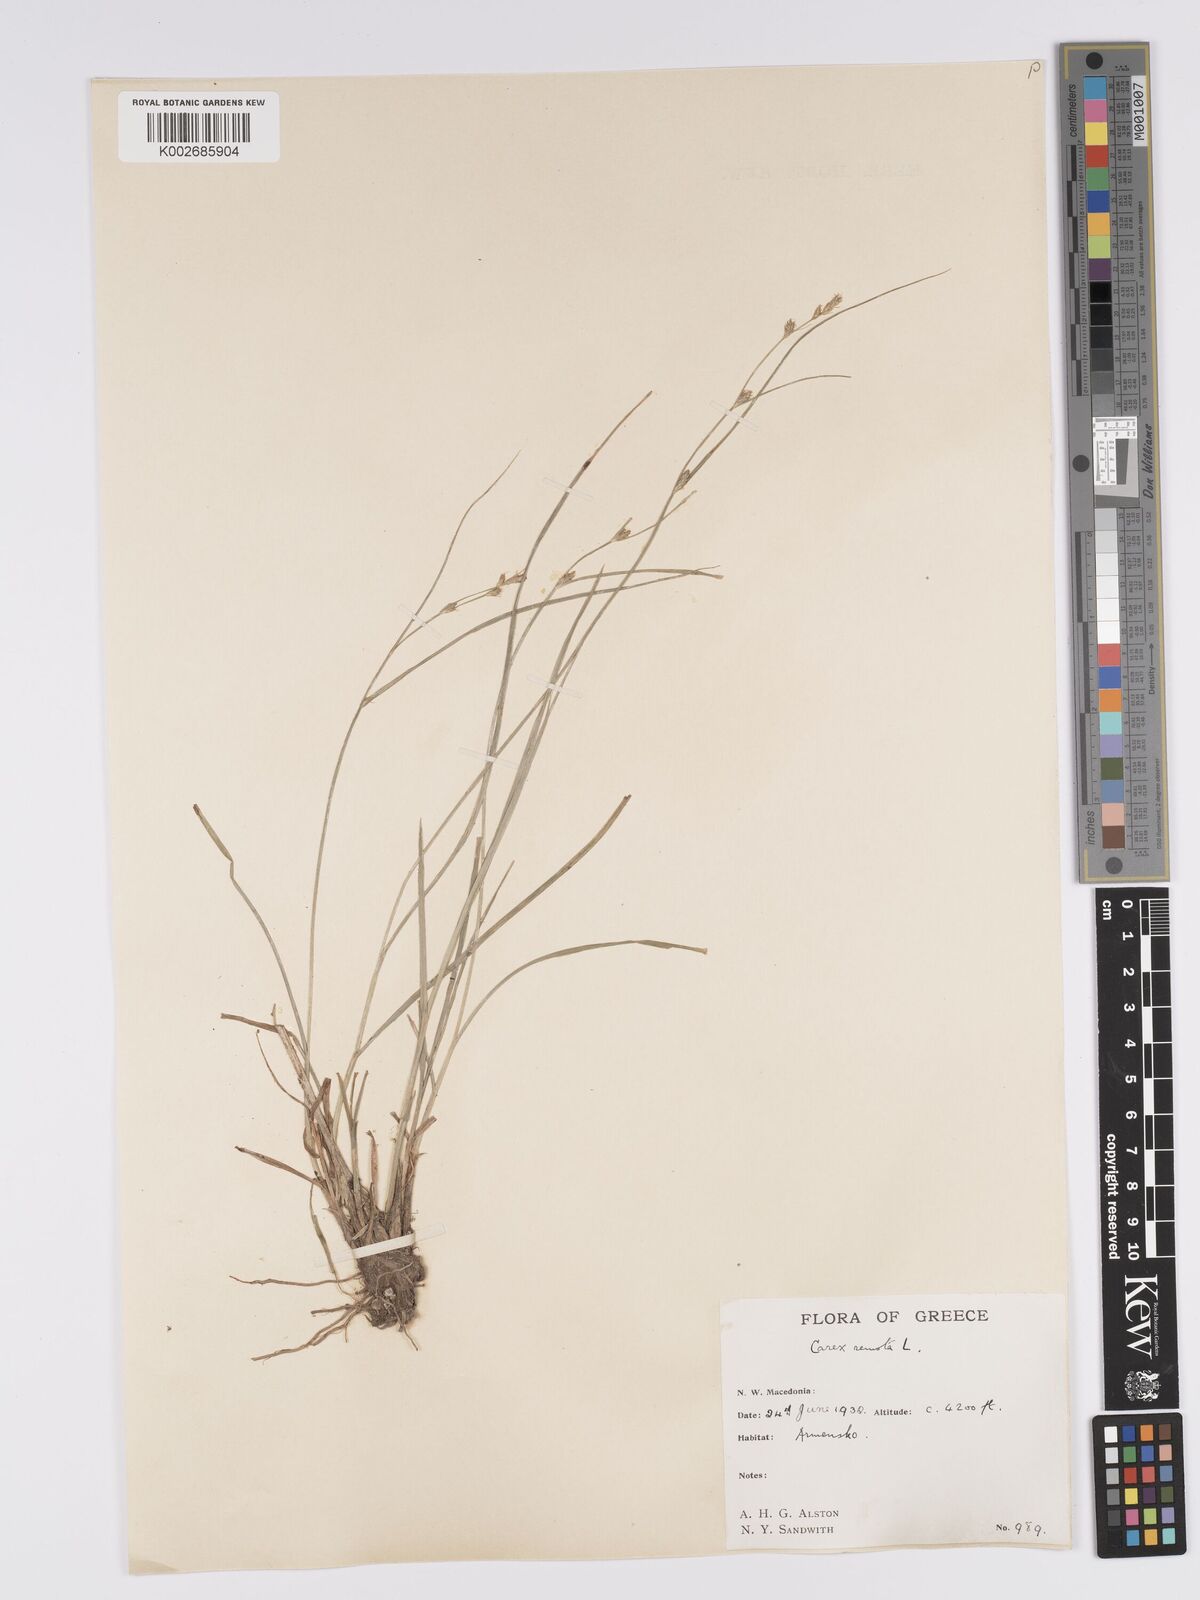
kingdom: Plantae
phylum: Tracheophyta
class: Liliopsida
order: Poales
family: Cyperaceae
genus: Carex
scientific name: Carex remota
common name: Remote sedge
